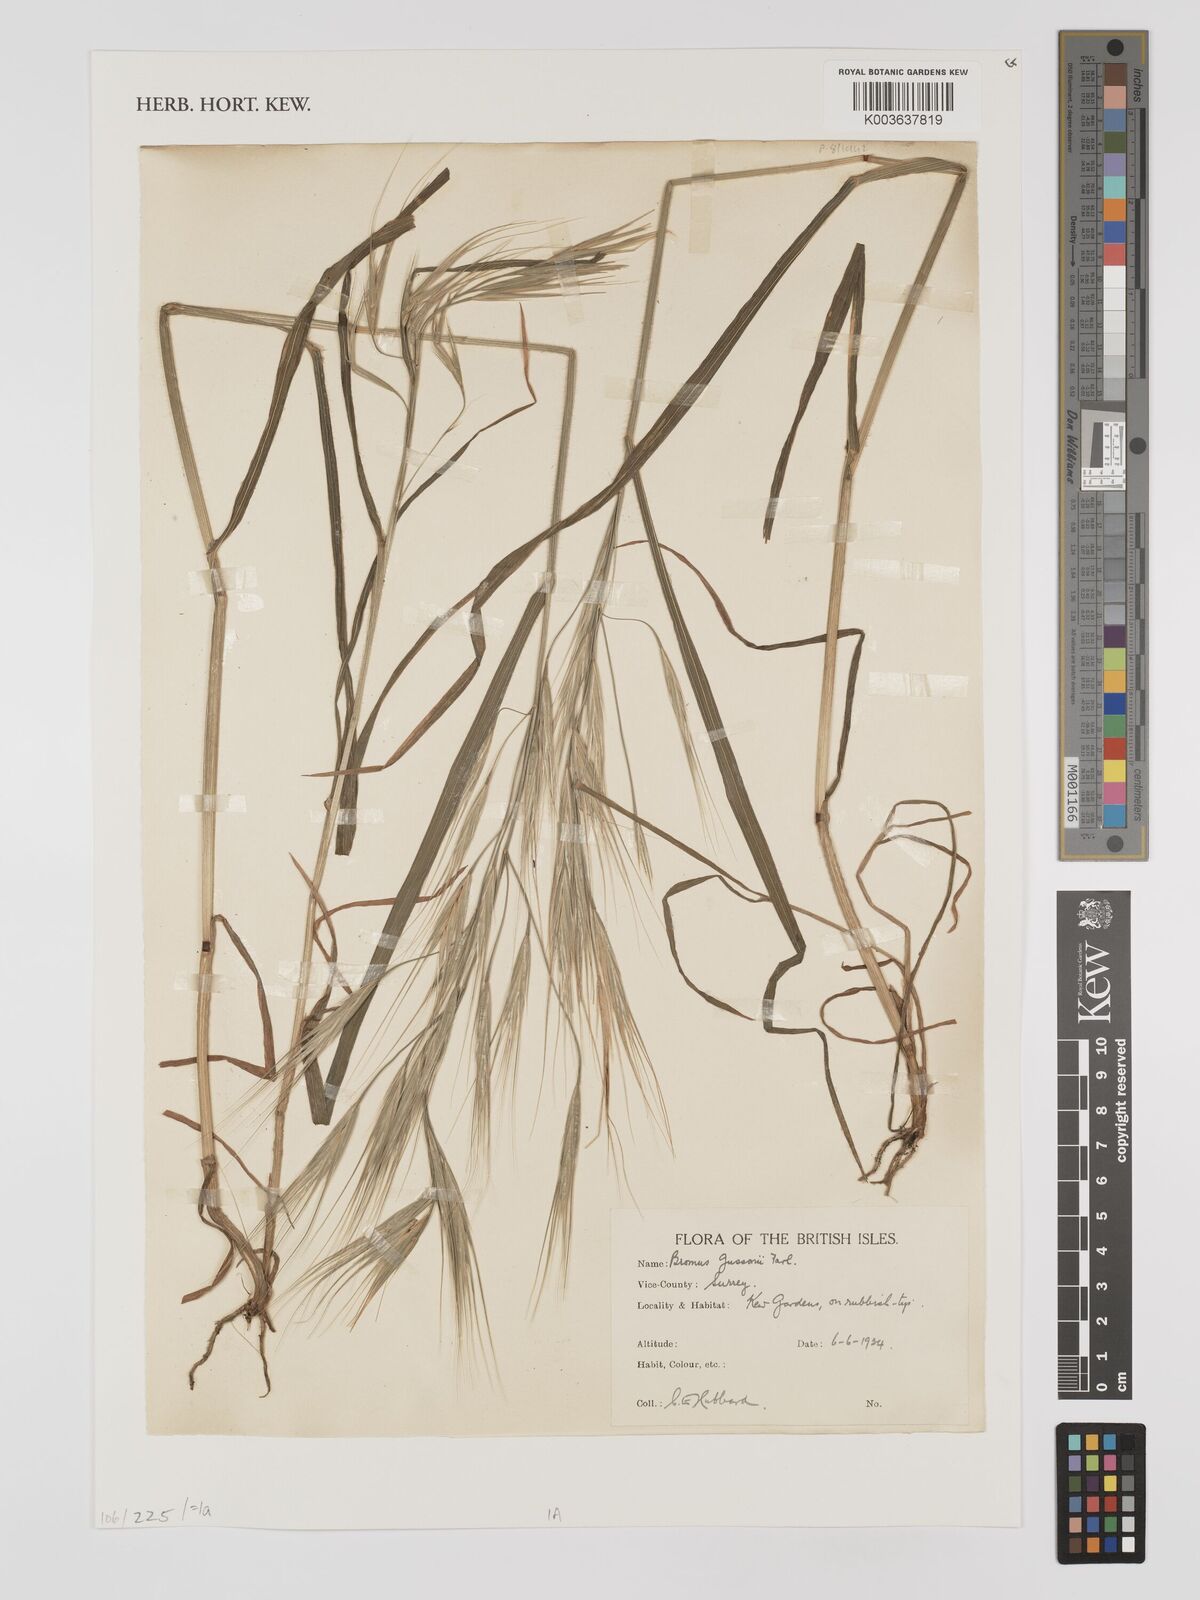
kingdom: Plantae
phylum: Tracheophyta
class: Liliopsida
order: Poales
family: Poaceae
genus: Bromus
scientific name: Bromus
